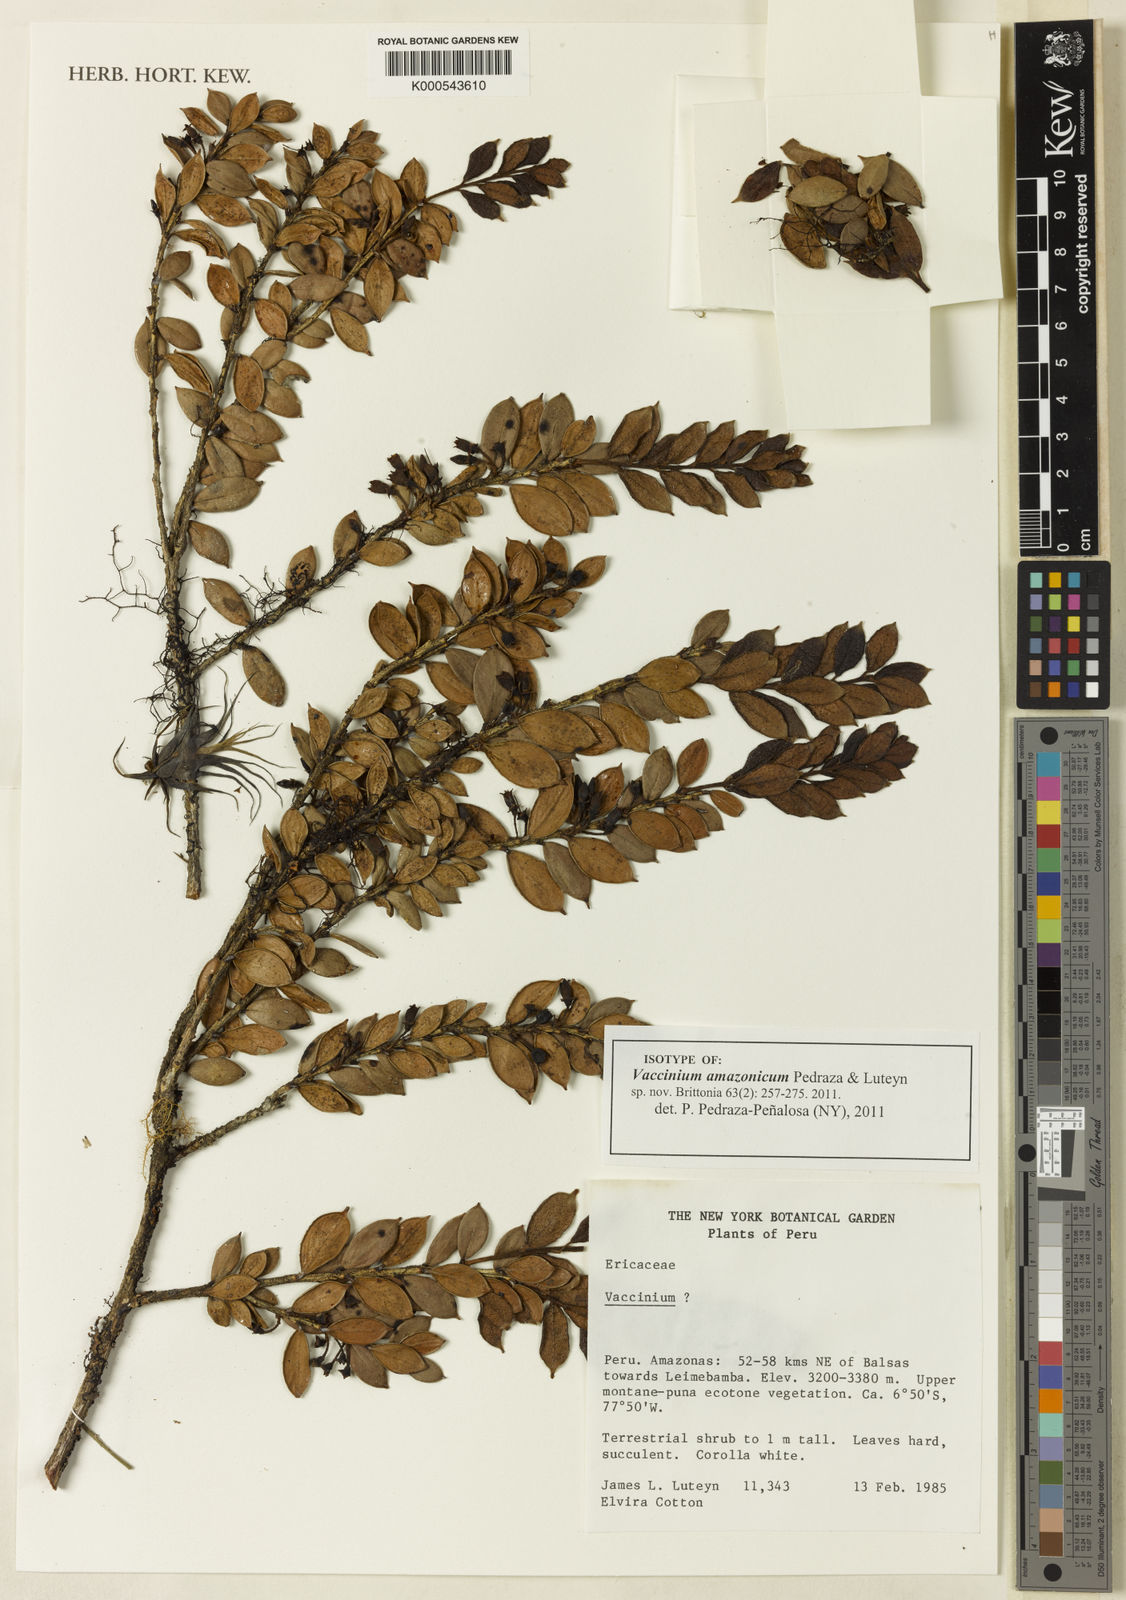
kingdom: Plantae
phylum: Tracheophyta
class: Magnoliopsida
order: Ericales
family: Ericaceae
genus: Vaccinium
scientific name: Vaccinium amazonicum
